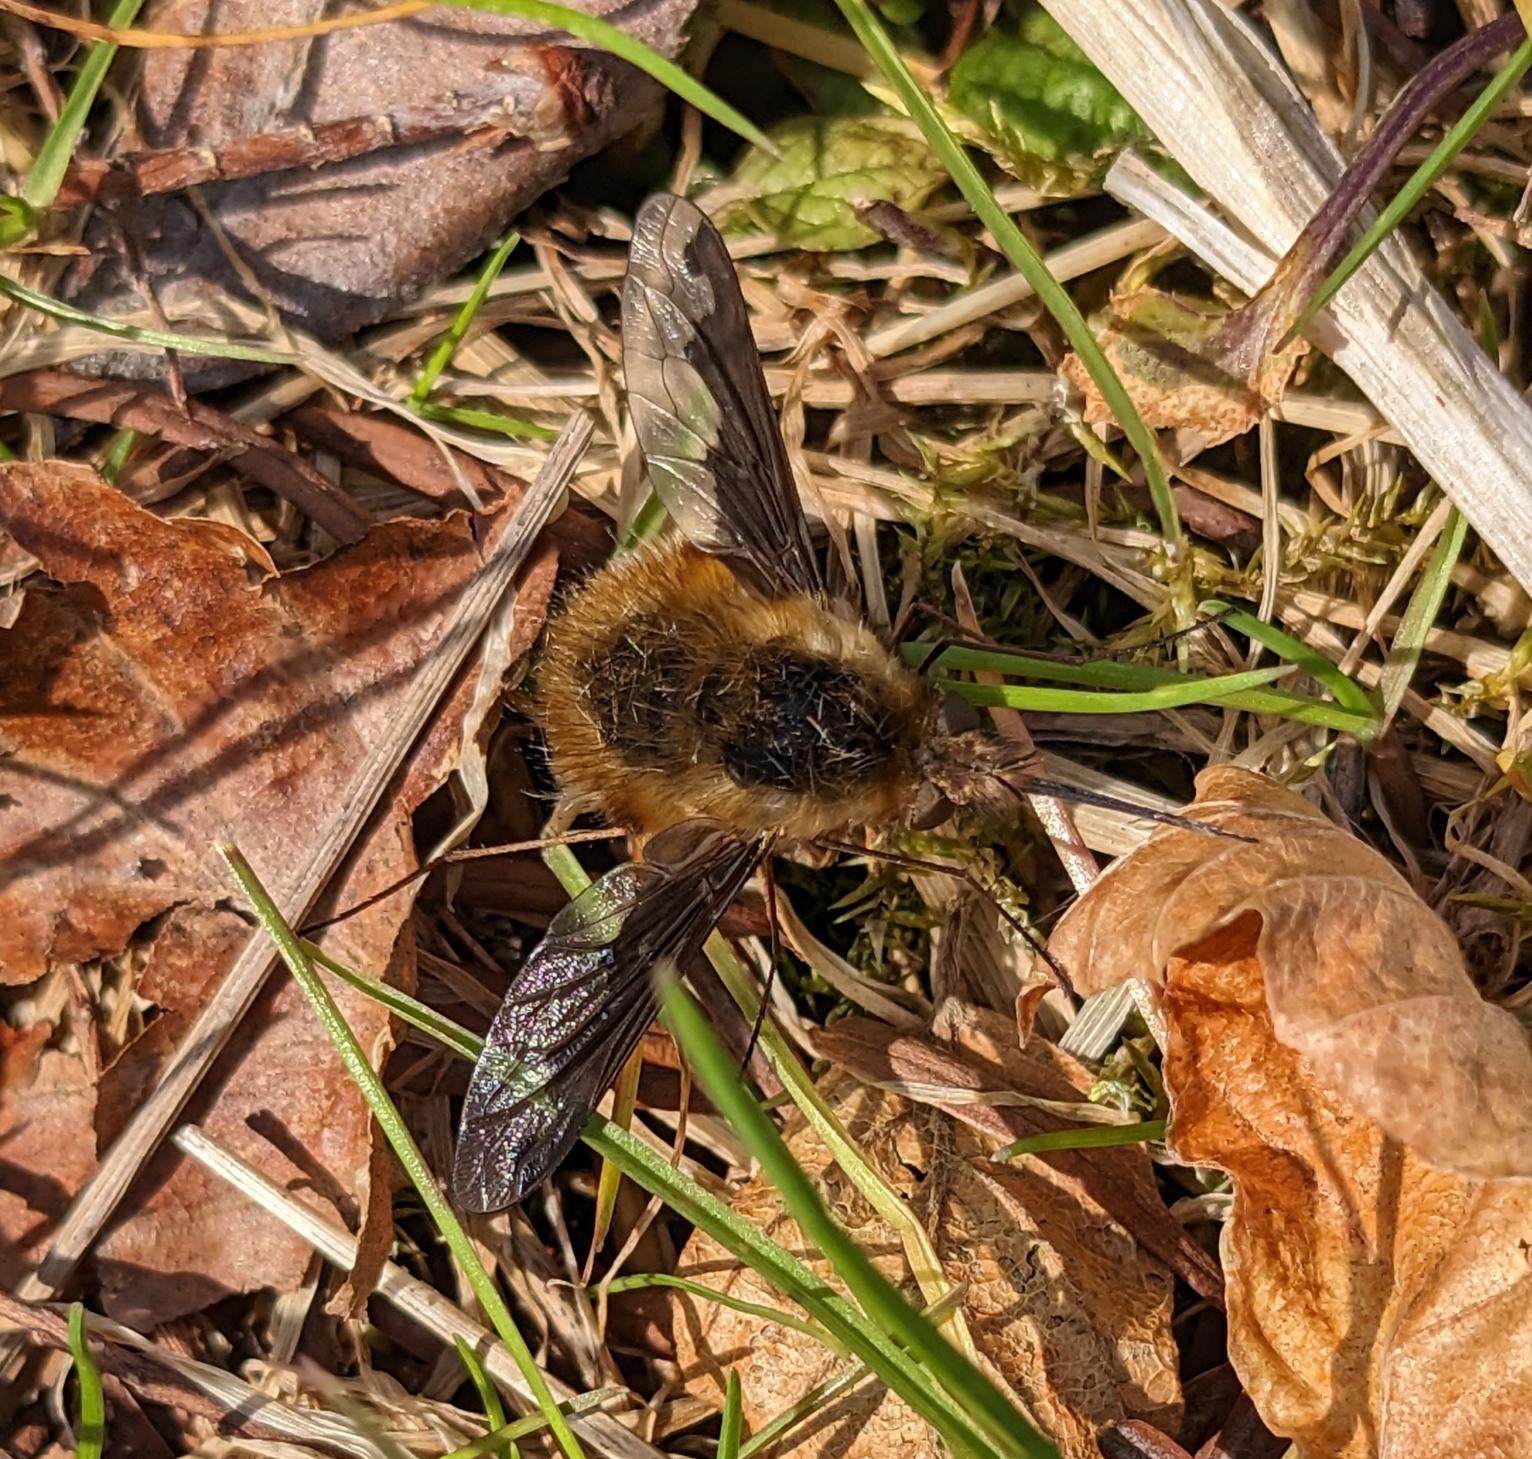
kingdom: Animalia
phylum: Arthropoda
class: Insecta
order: Diptera
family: Bombyliidae
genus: Bombylius
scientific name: Bombylius major
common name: Stor humleflue
